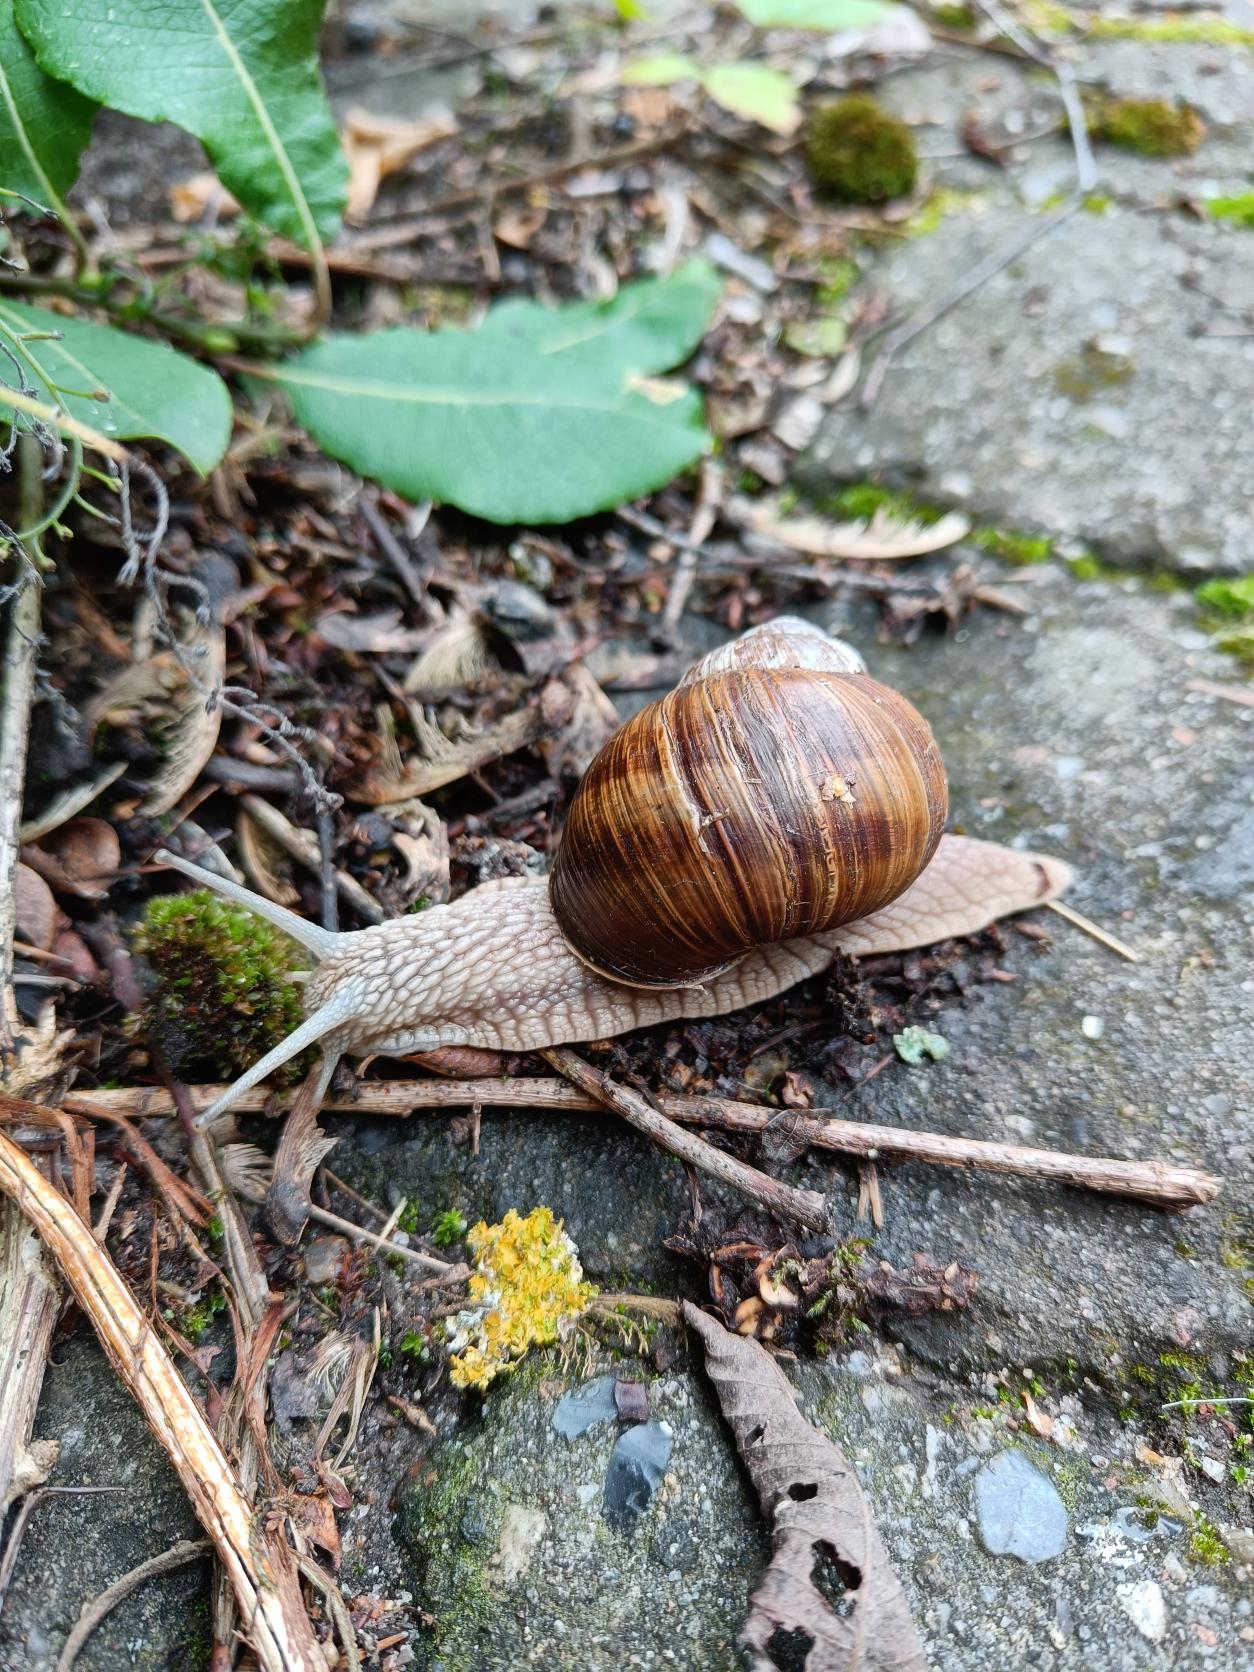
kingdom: Animalia
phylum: Mollusca
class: Gastropoda
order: Stylommatophora
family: Helicidae
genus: Helix
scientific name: Helix pomatia
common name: Vinbjergsnegl
